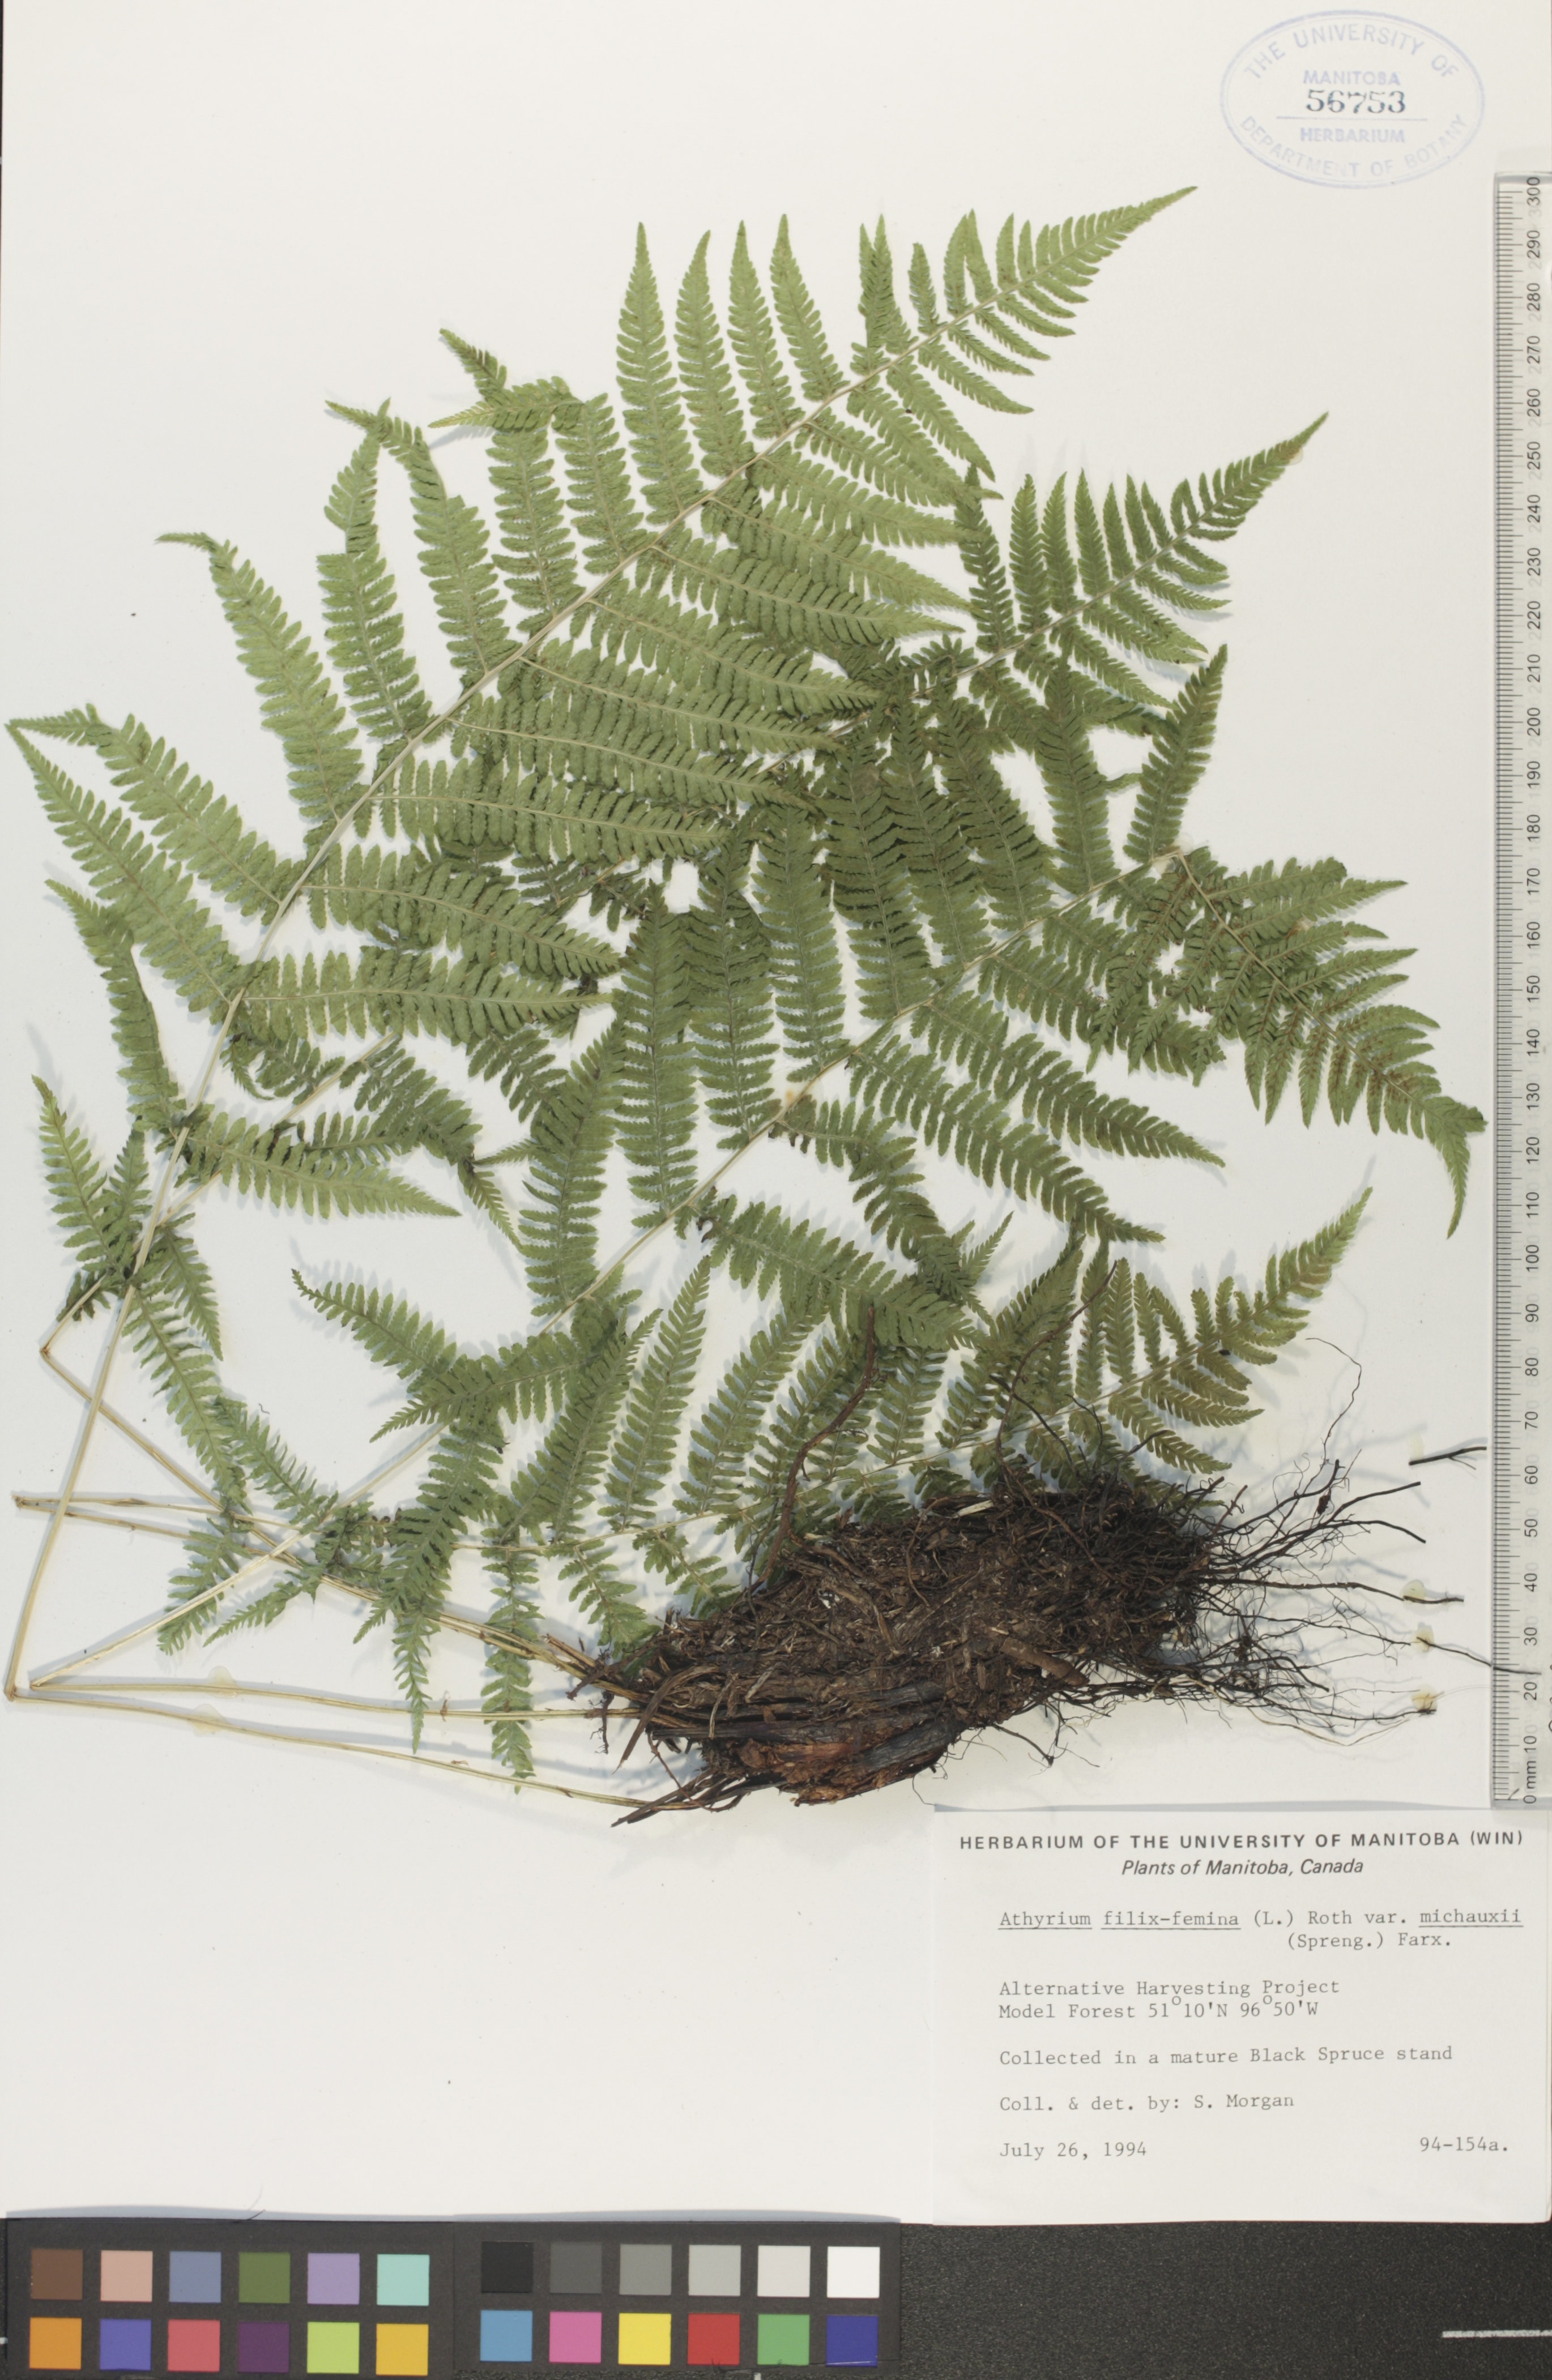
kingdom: Plantae
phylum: Tracheophyta
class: Polypodiopsida
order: Polypodiales
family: Athyriaceae
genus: Athyrium
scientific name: Athyrium angustum
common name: Northern lady fern
